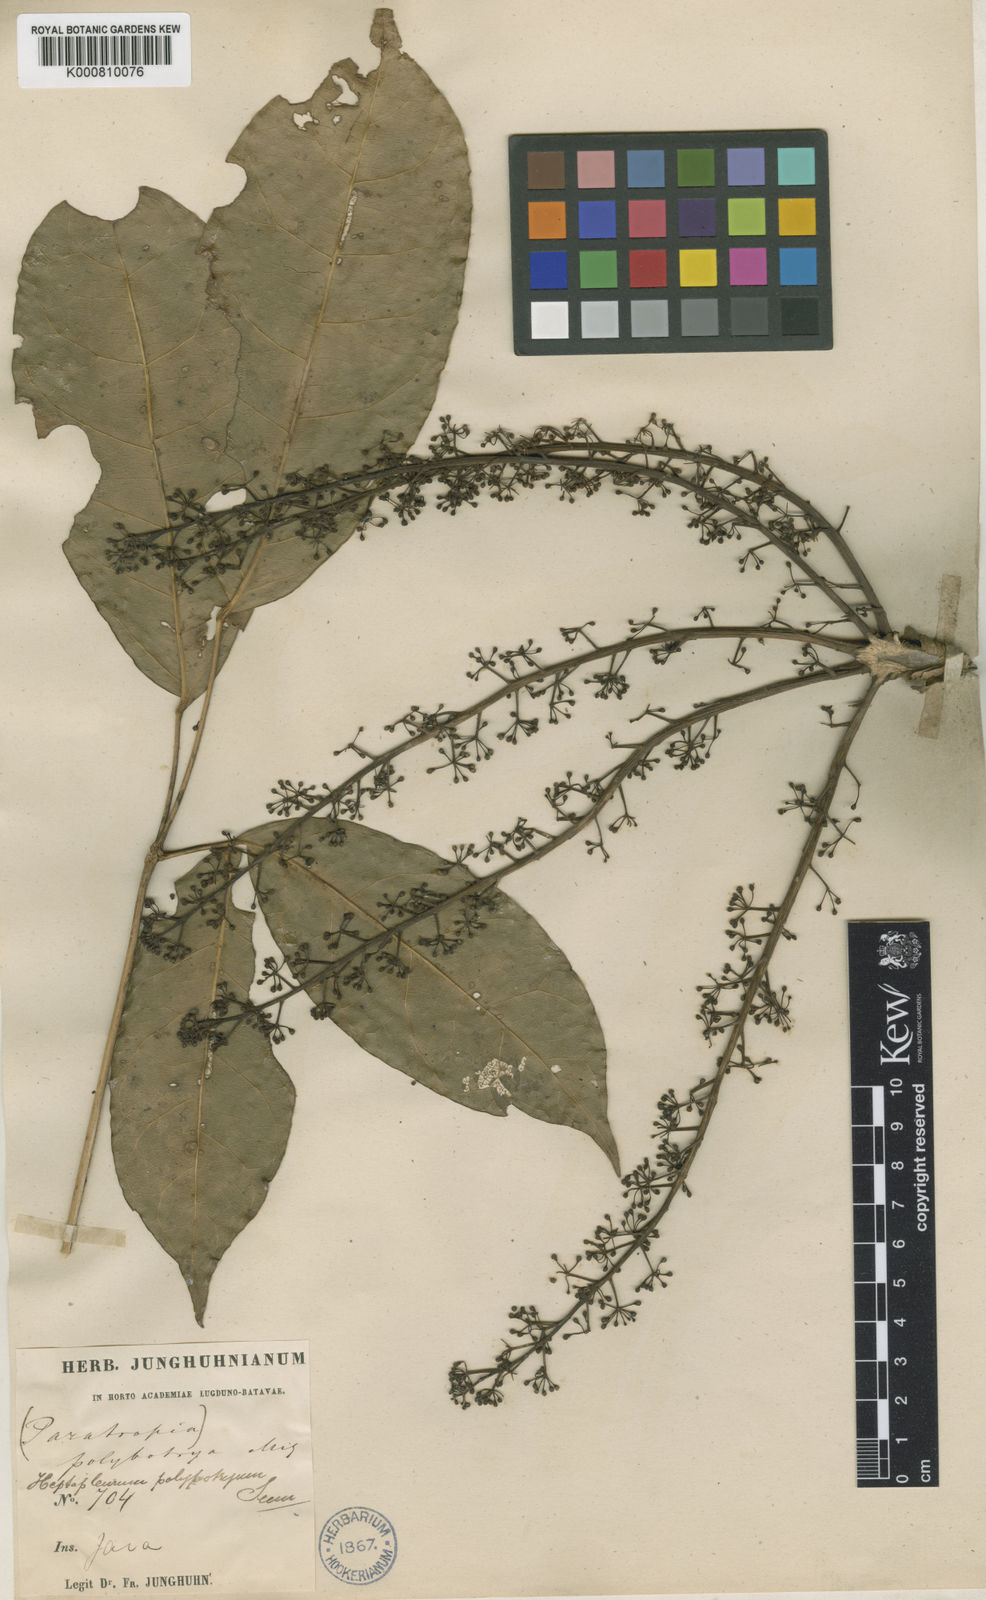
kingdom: Plantae
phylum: Tracheophyta
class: Magnoliopsida
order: Apiales
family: Araliaceae
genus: Heptapleurum
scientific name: Heptapleurum polybotryum
